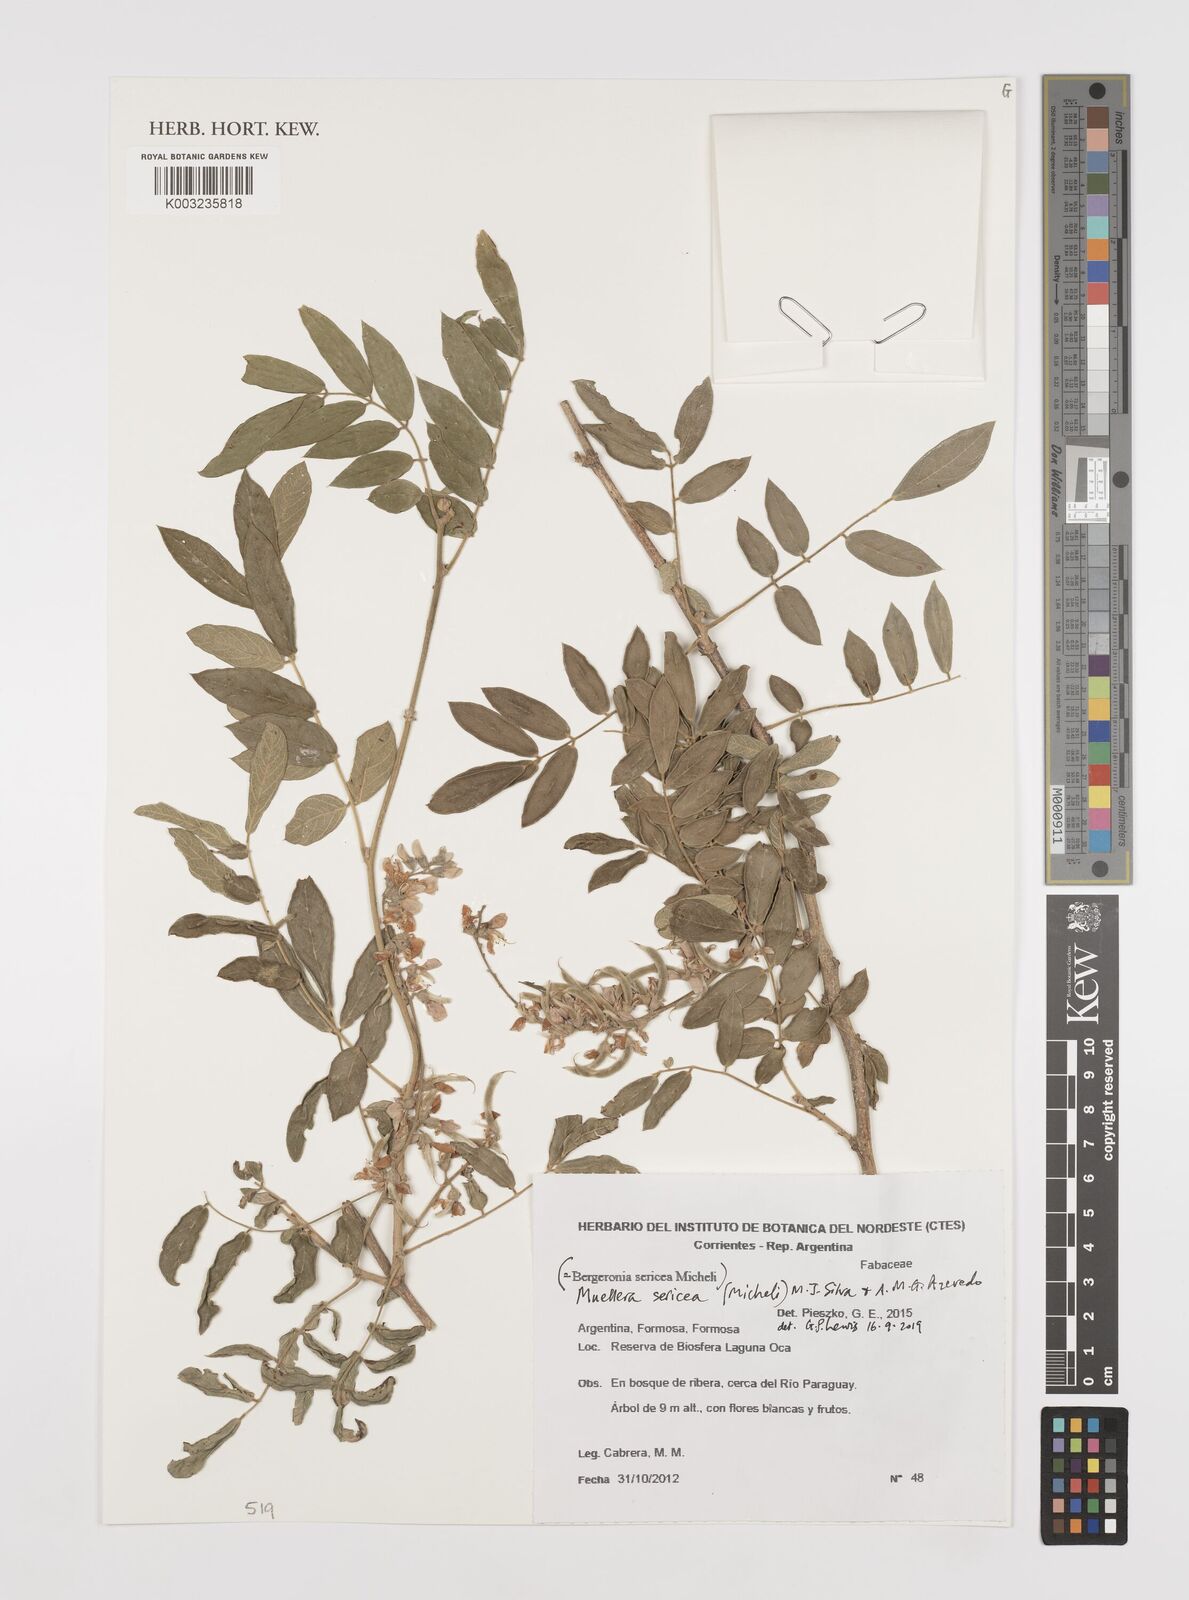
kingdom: Plantae
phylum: Tracheophyta
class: Magnoliopsida
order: Fabales
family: Fabaceae
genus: Muellera
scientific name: Muellera sericea
